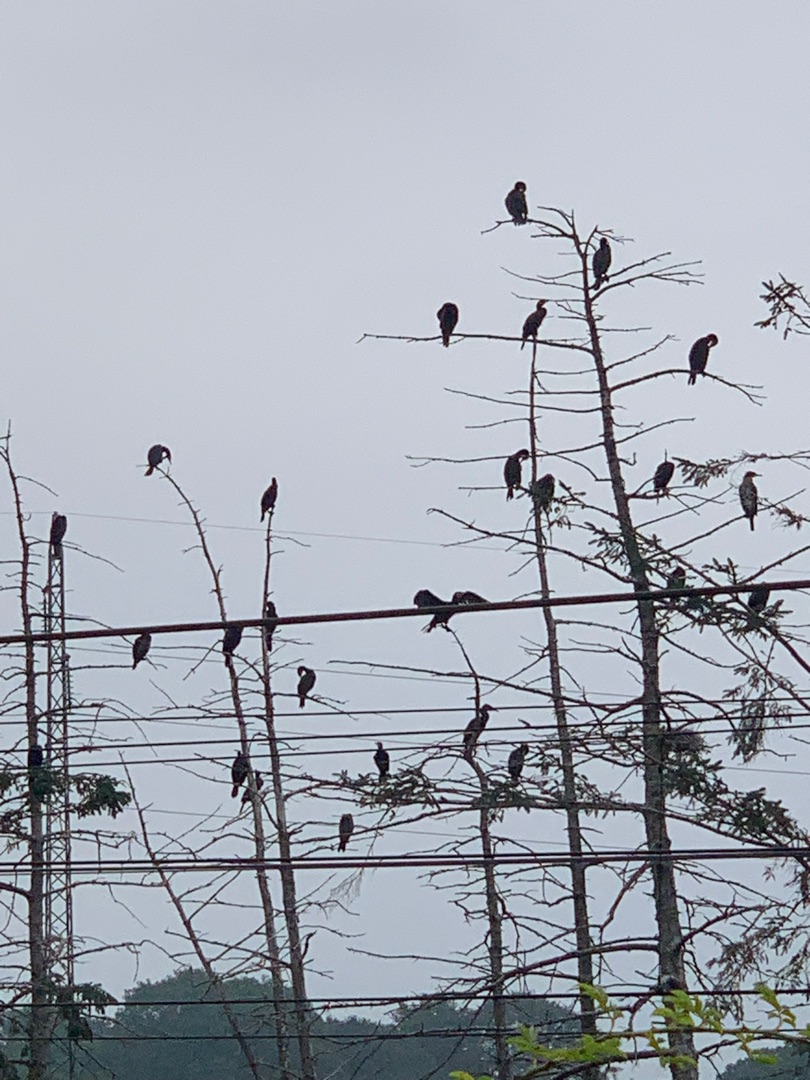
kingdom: Animalia
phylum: Chordata
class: Aves
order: Suliformes
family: Phalacrocoracidae
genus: Phalacrocorax
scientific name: Phalacrocorax carbo
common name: Skarv
